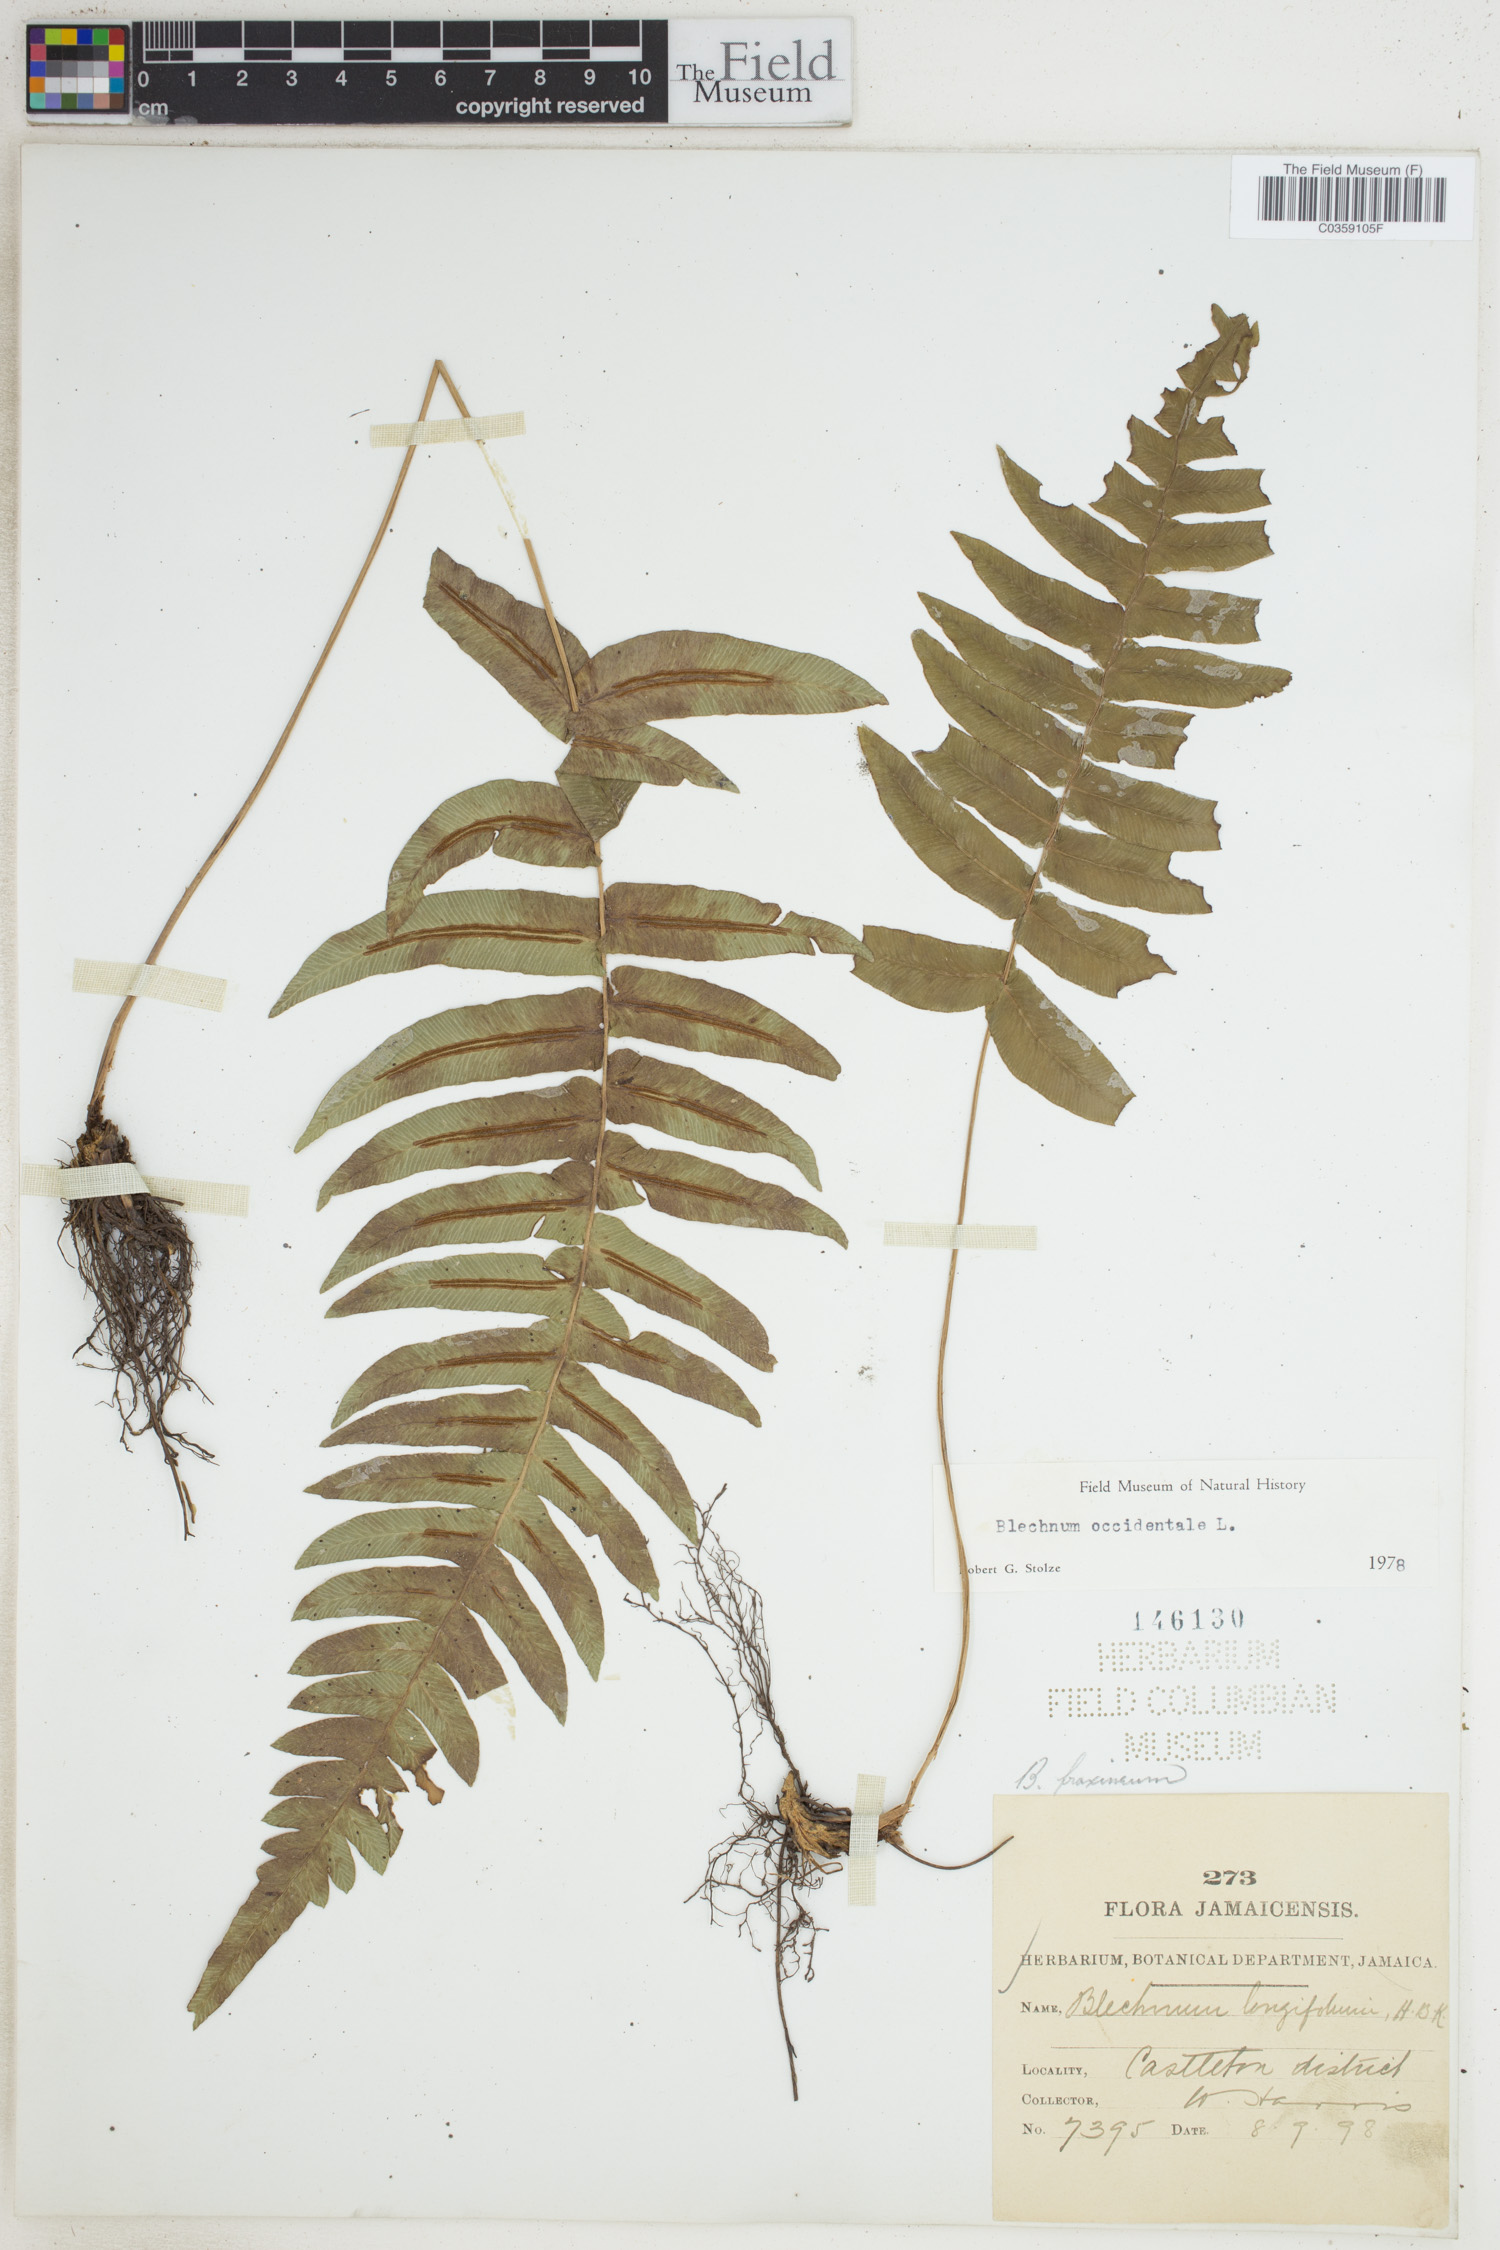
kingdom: Plantae
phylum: Tracheophyta
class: Polypodiopsida
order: Polypodiales
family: Blechnaceae
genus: Blechnum
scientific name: Blechnum occidentale
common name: Hammock fern
